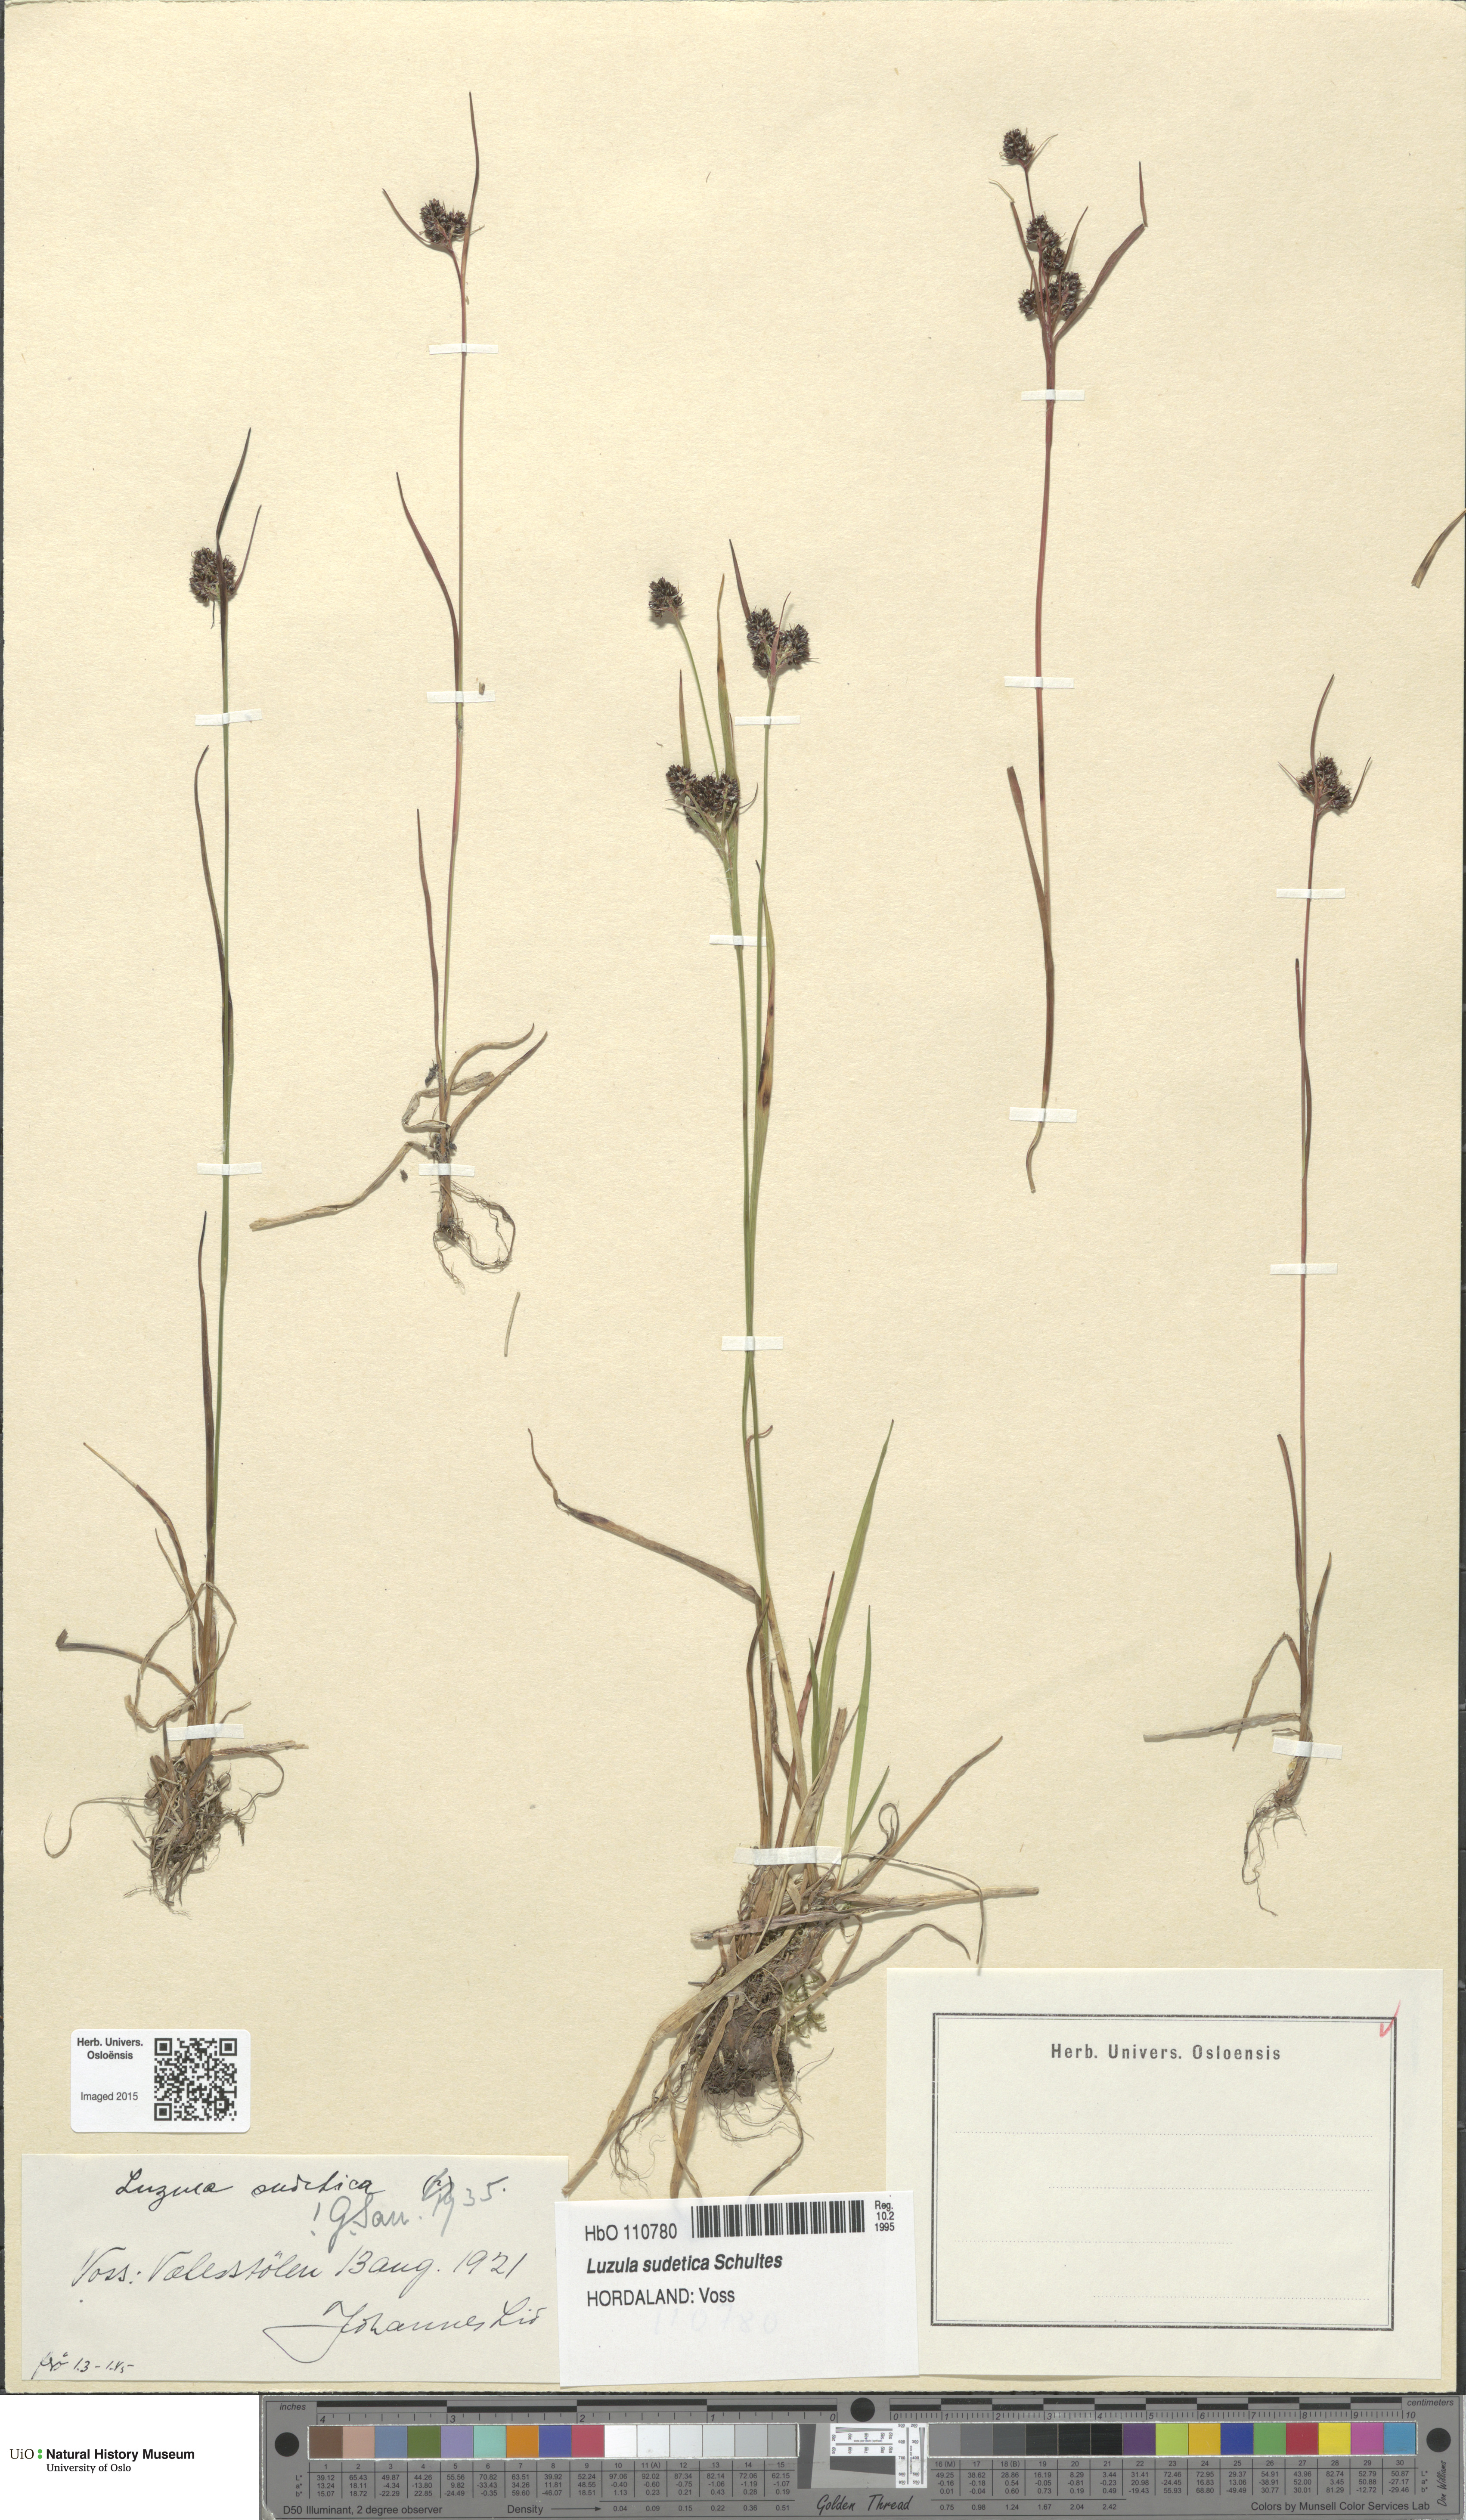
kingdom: Plantae
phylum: Tracheophyta
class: Liliopsida
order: Poales
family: Juncaceae
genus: Luzula
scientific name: Luzula sudetica
